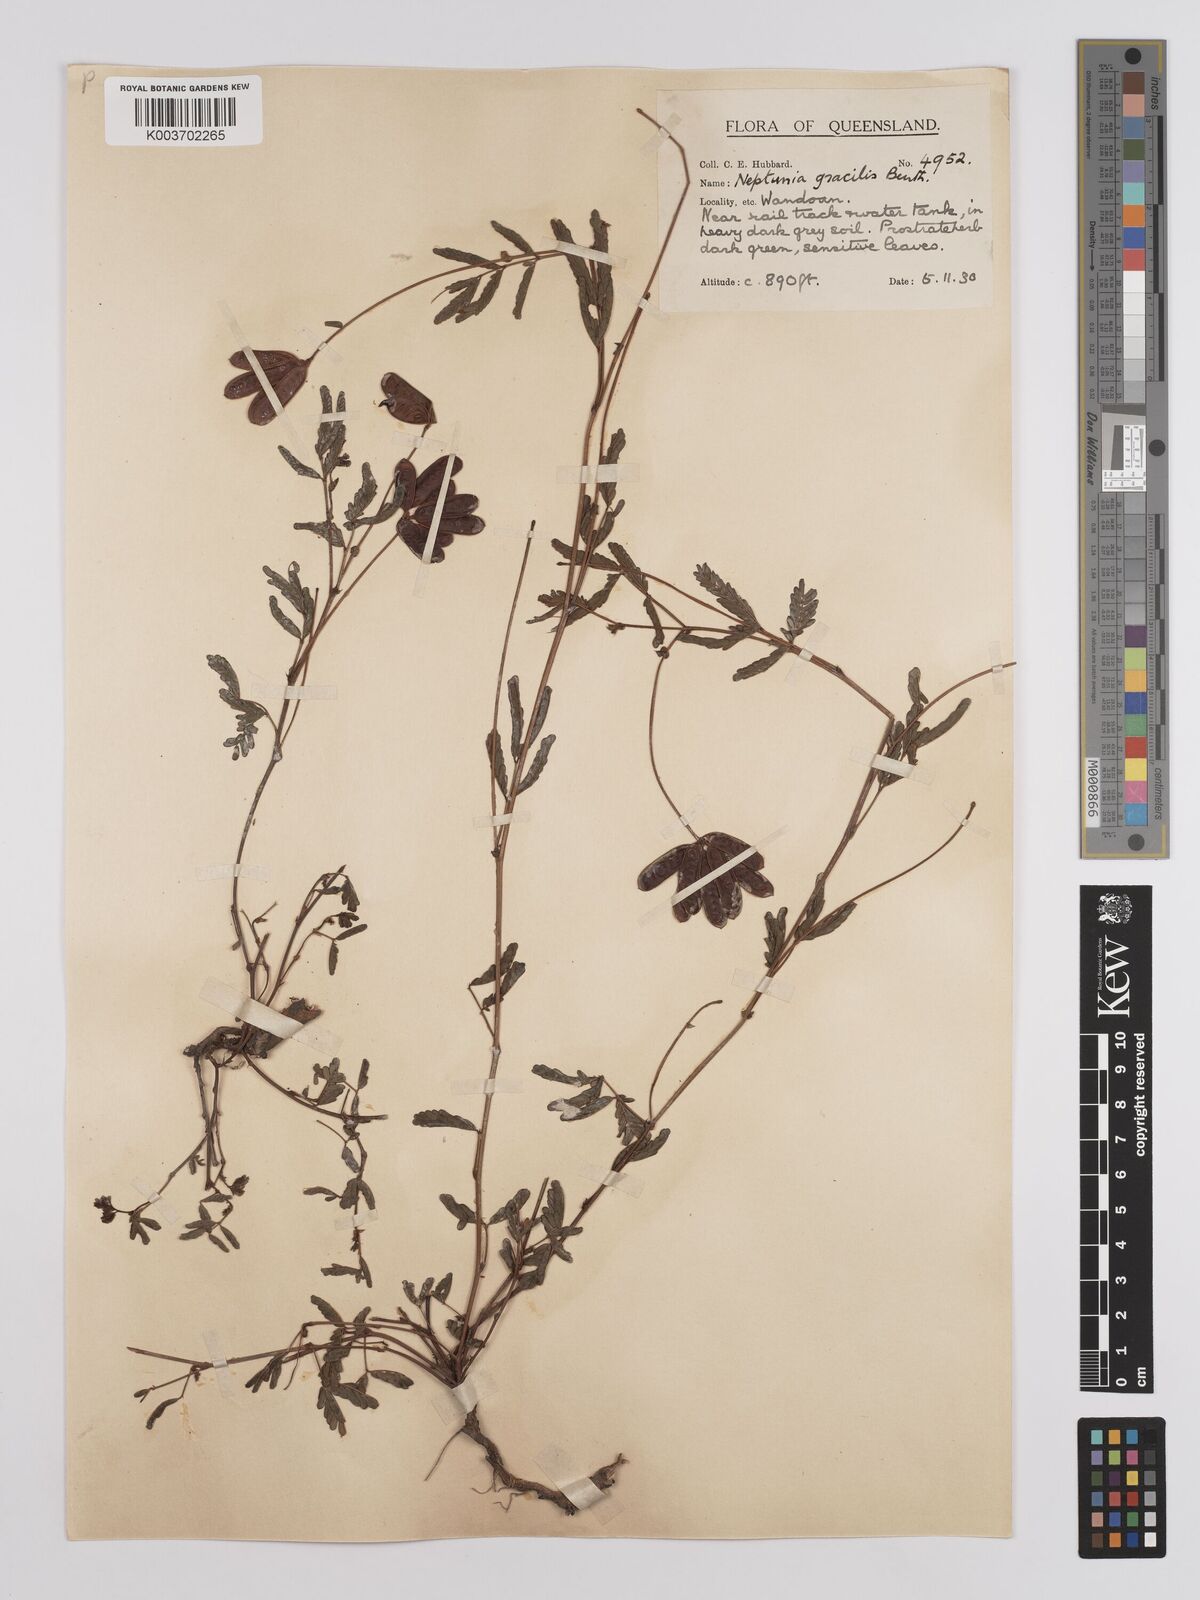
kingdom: Plantae
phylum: Tracheophyta
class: Magnoliopsida
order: Fabales
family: Fabaceae
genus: Neptunia
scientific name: Neptunia gracilis
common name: Sensitive-plant
